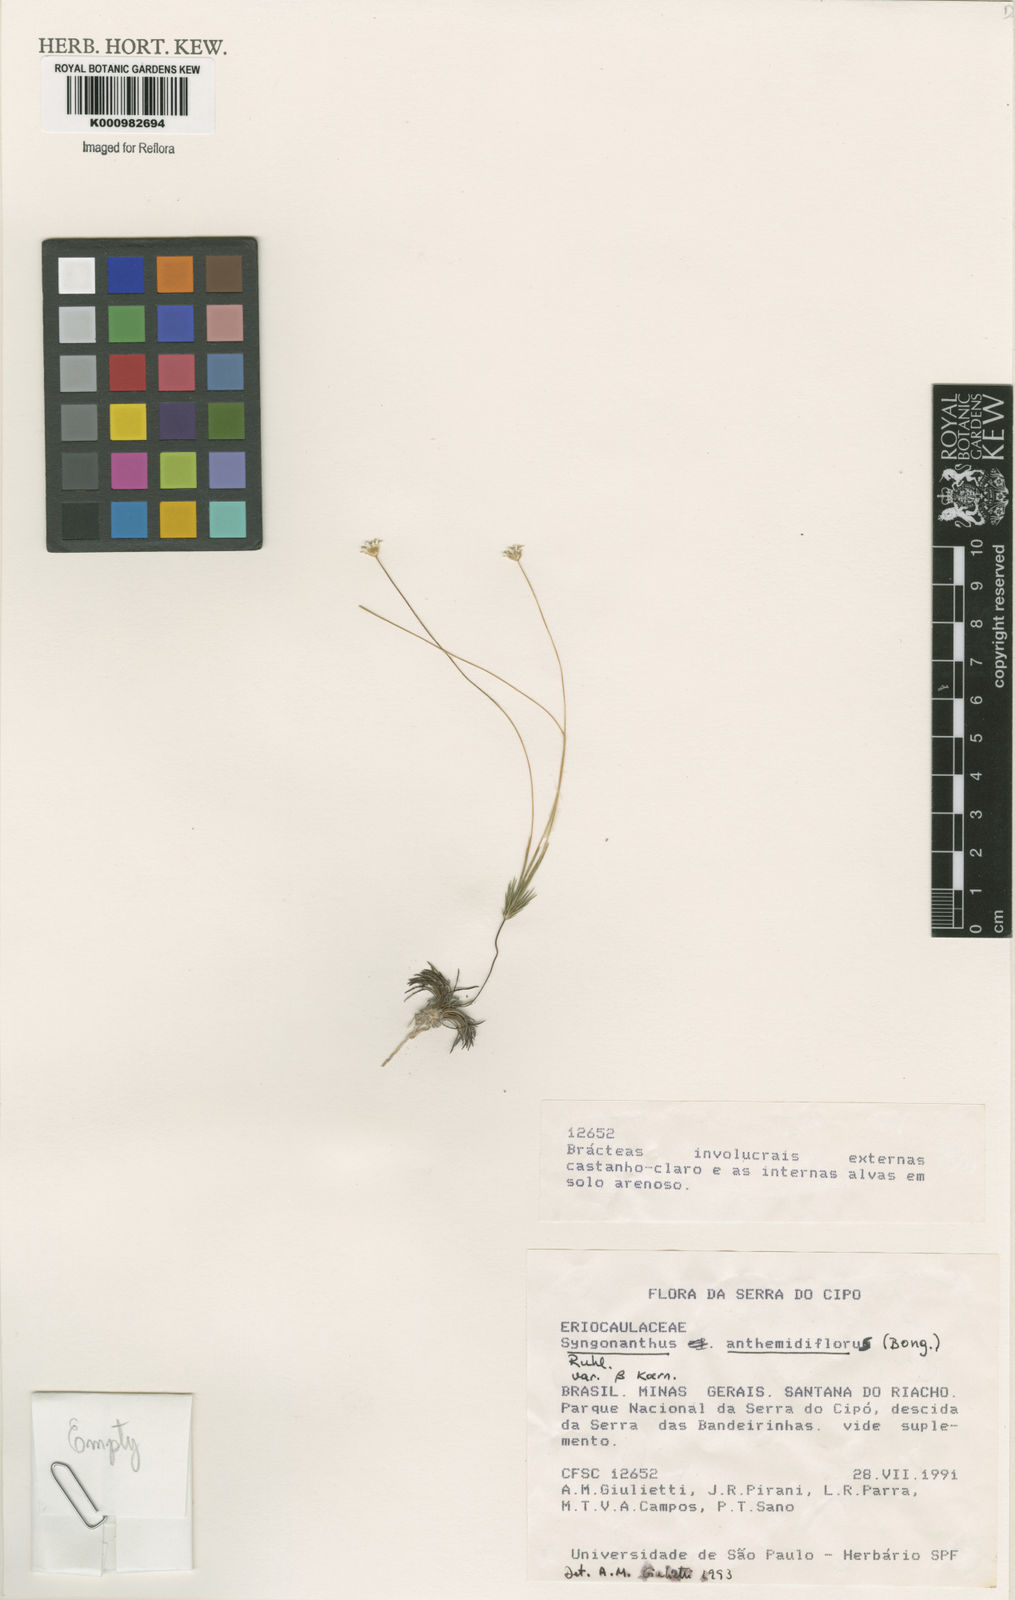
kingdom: Plantae
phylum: Tracheophyta
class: Liliopsida
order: Poales
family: Eriocaulaceae
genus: Syngonanthus
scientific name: Syngonanthus anthemidiflorus
